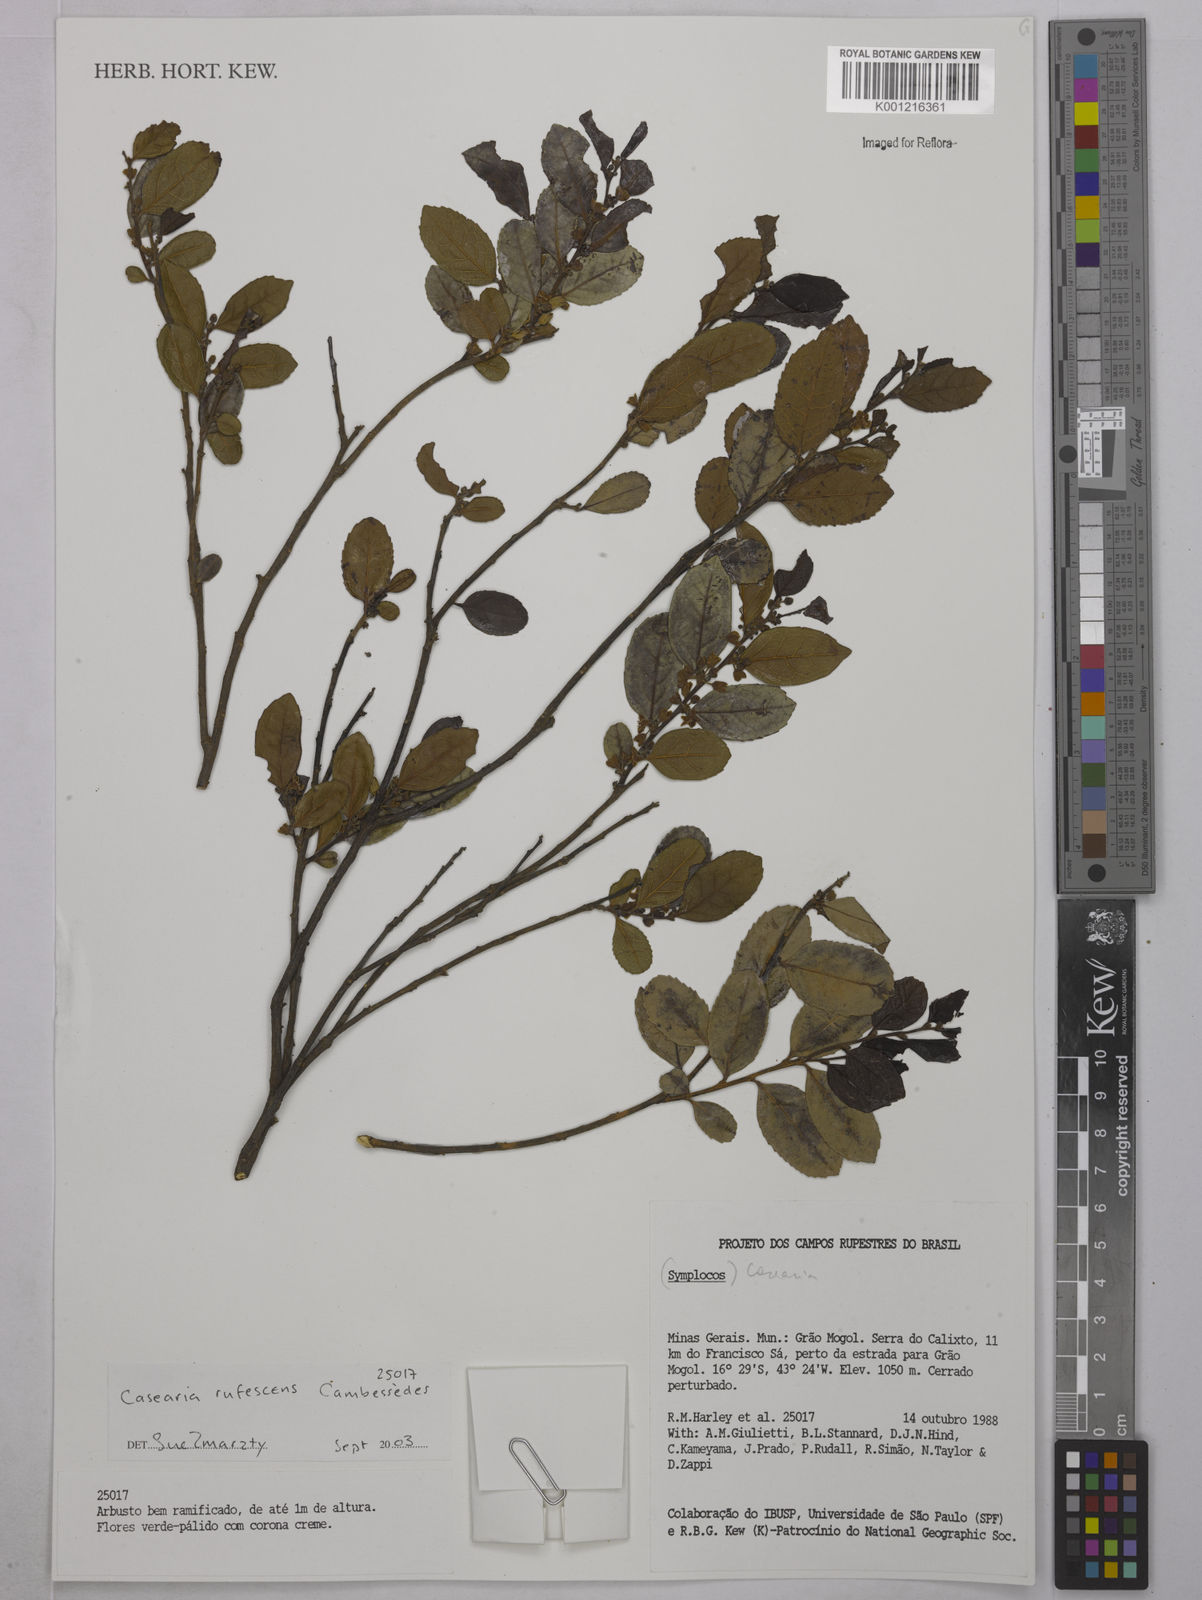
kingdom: Plantae
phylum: Tracheophyta
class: Magnoliopsida
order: Malpighiales
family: Salicaceae
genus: Casearia
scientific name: Casearia rufescens
